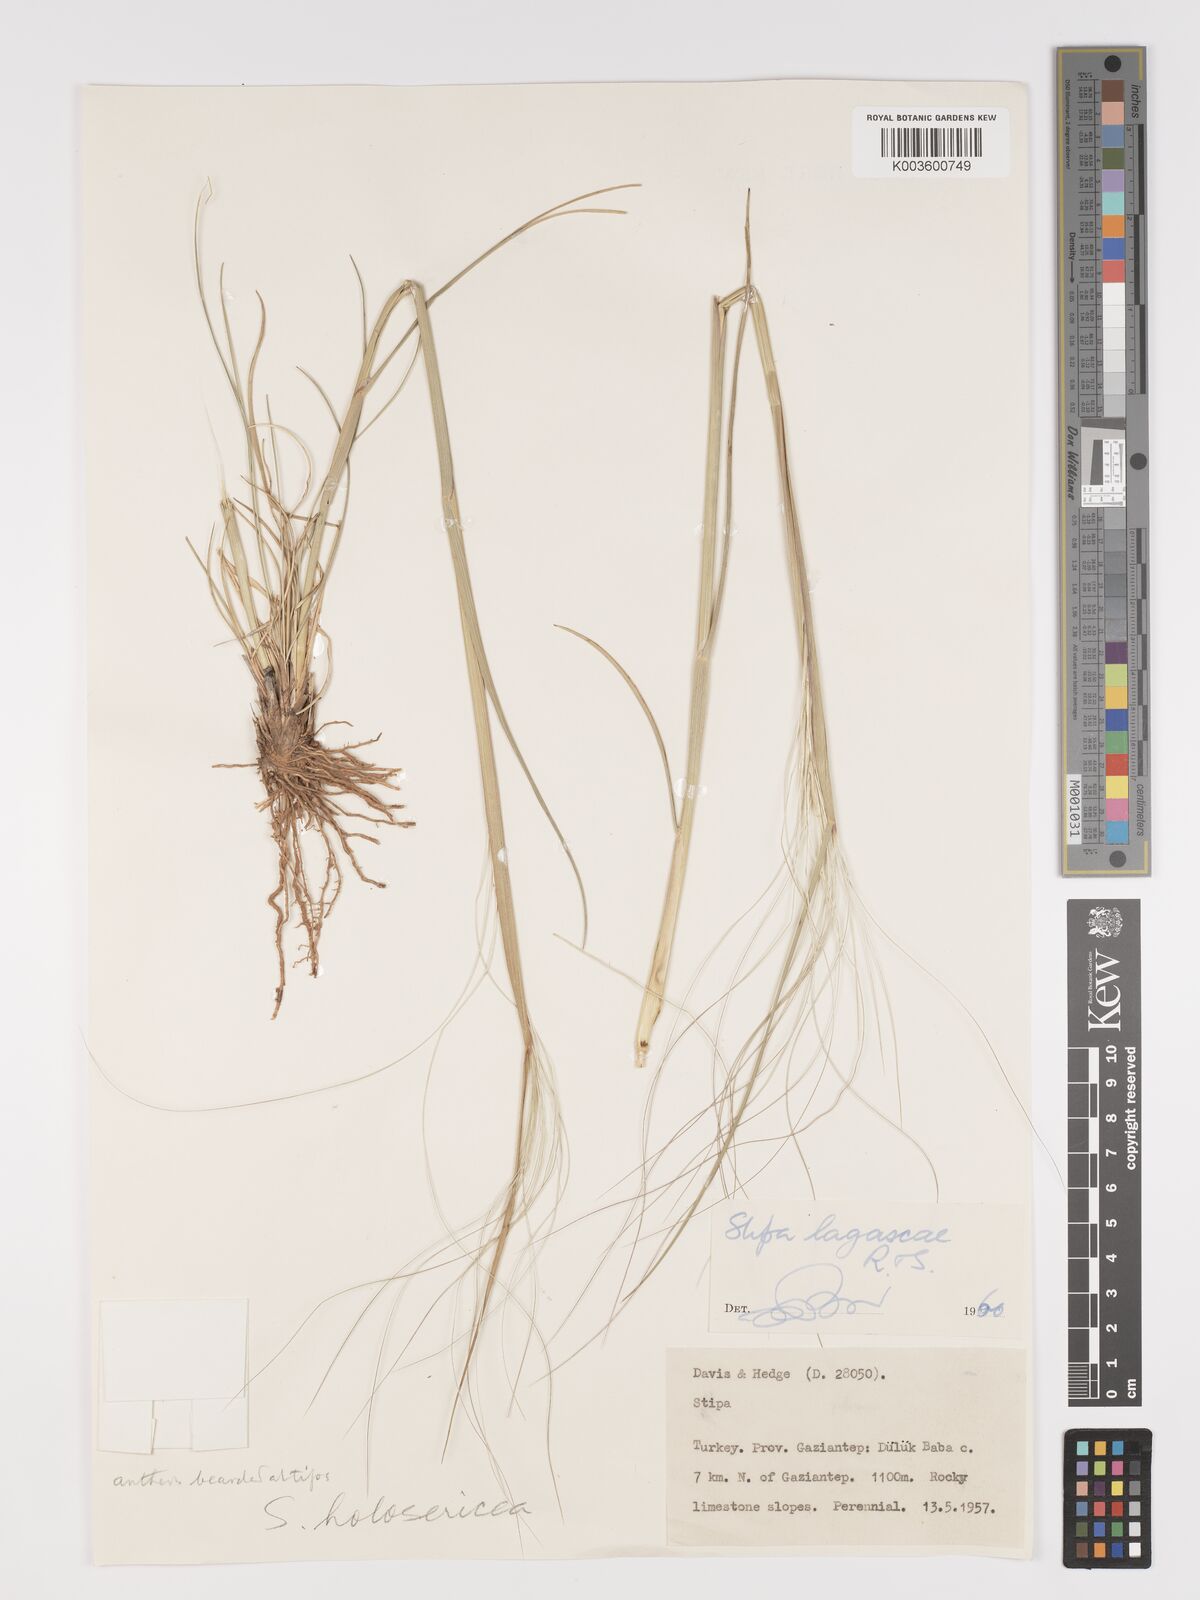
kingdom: Plantae
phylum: Tracheophyta
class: Liliopsida
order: Poales
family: Poaceae
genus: Stipa
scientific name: Stipa lagascae
